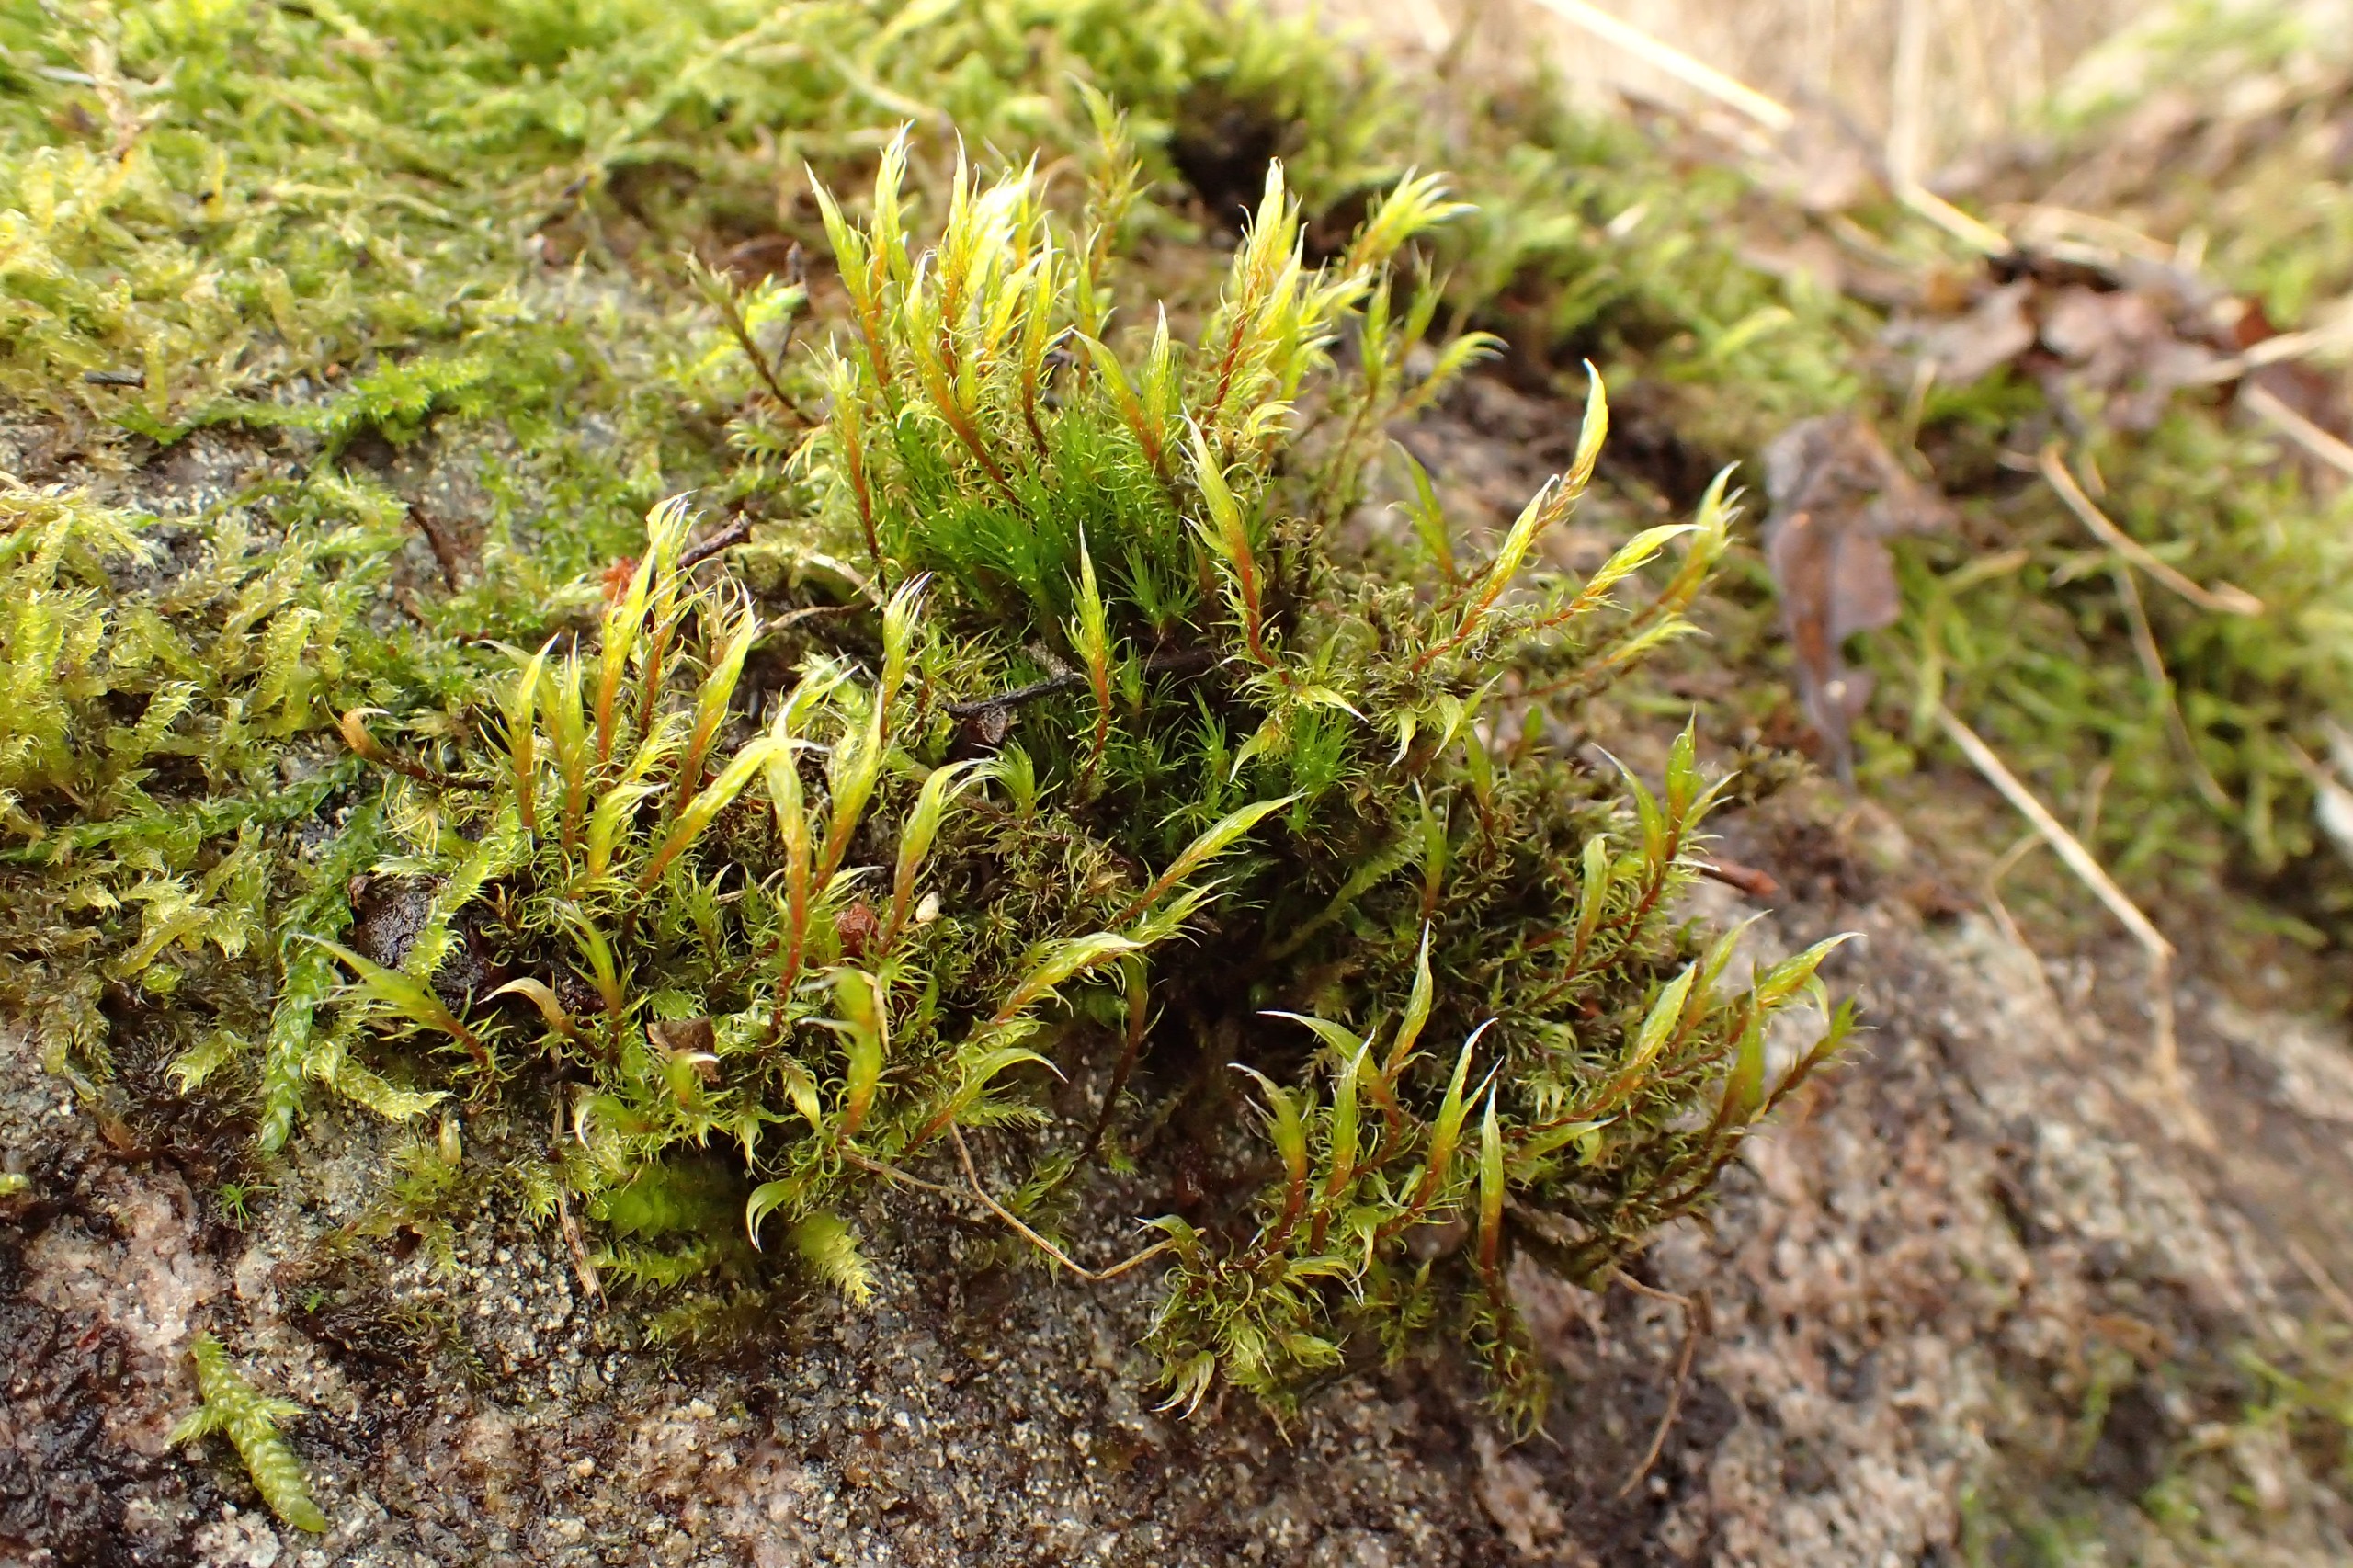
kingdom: Plantae
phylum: Bryophyta
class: Bryopsida
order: Grimmiales
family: Grimmiaceae
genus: Racomitrium
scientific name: Racomitrium lanuginosum
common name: Stor børstemos
